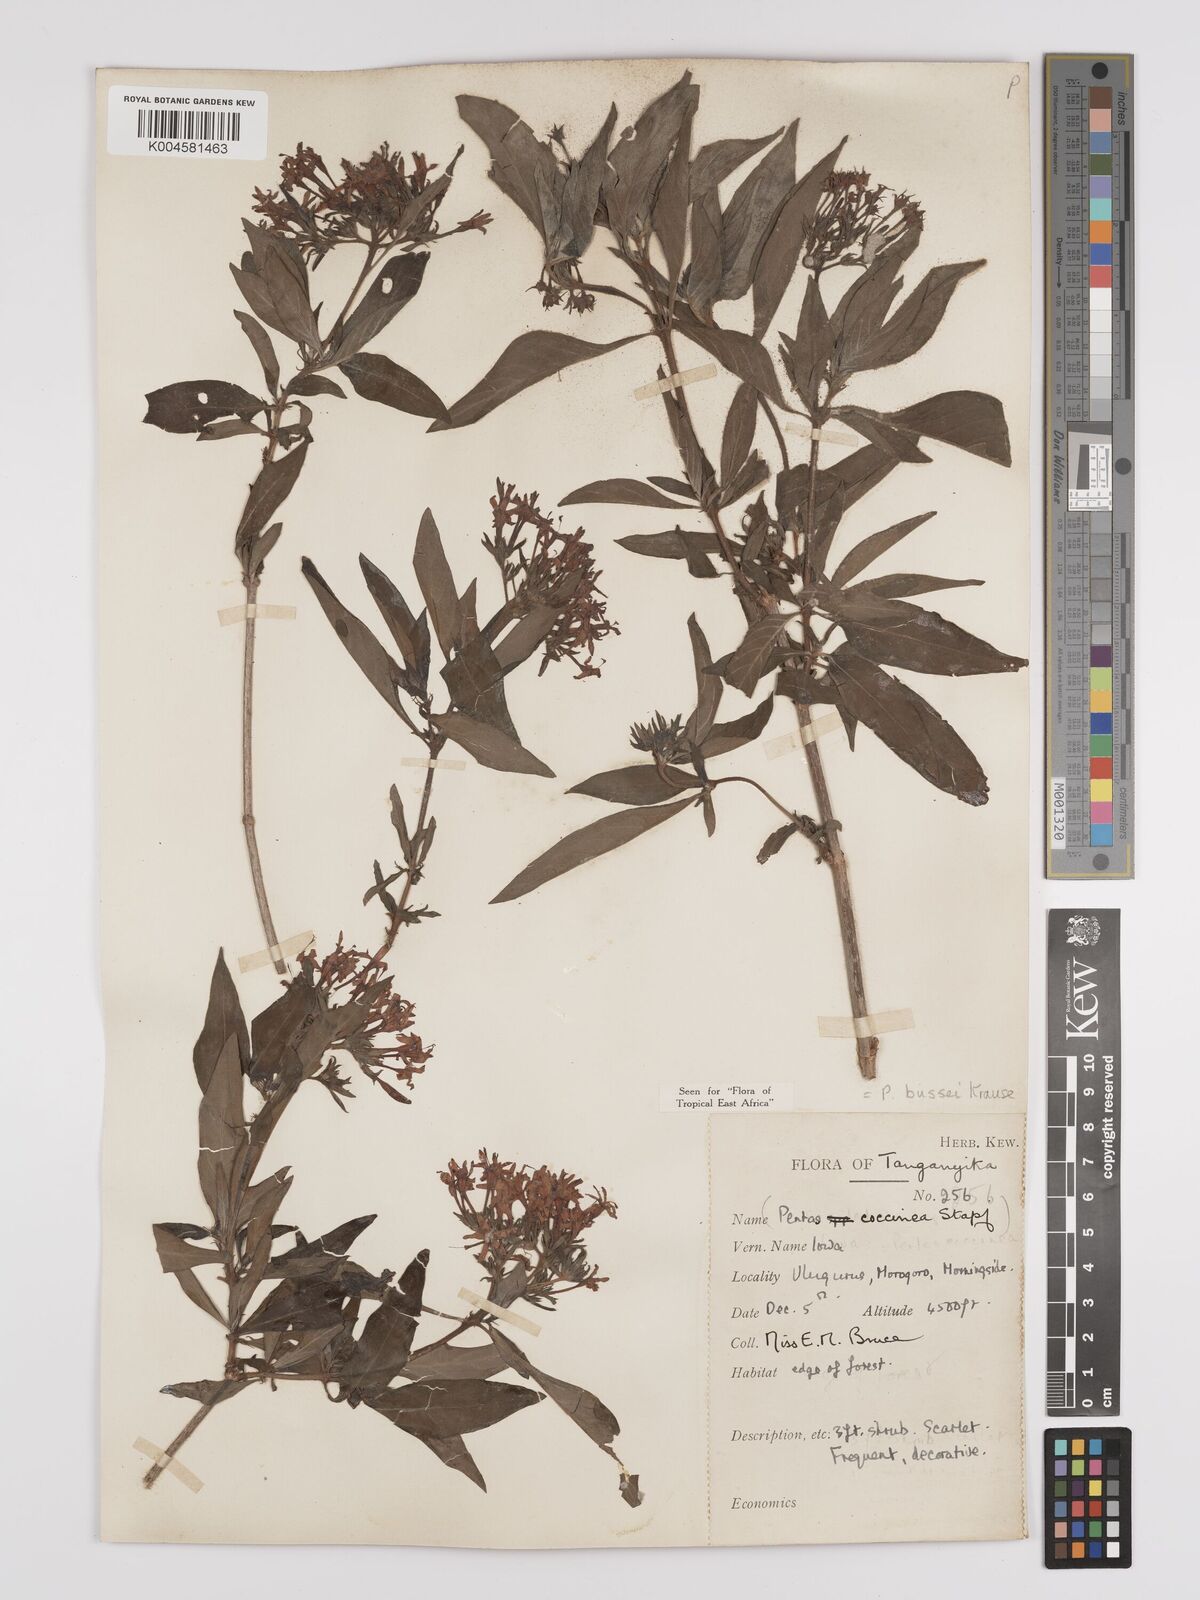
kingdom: Plantae
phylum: Tracheophyta
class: Magnoliopsida
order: Gentianales
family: Rubiaceae
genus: Rhodopentas
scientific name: Rhodopentas bussei
